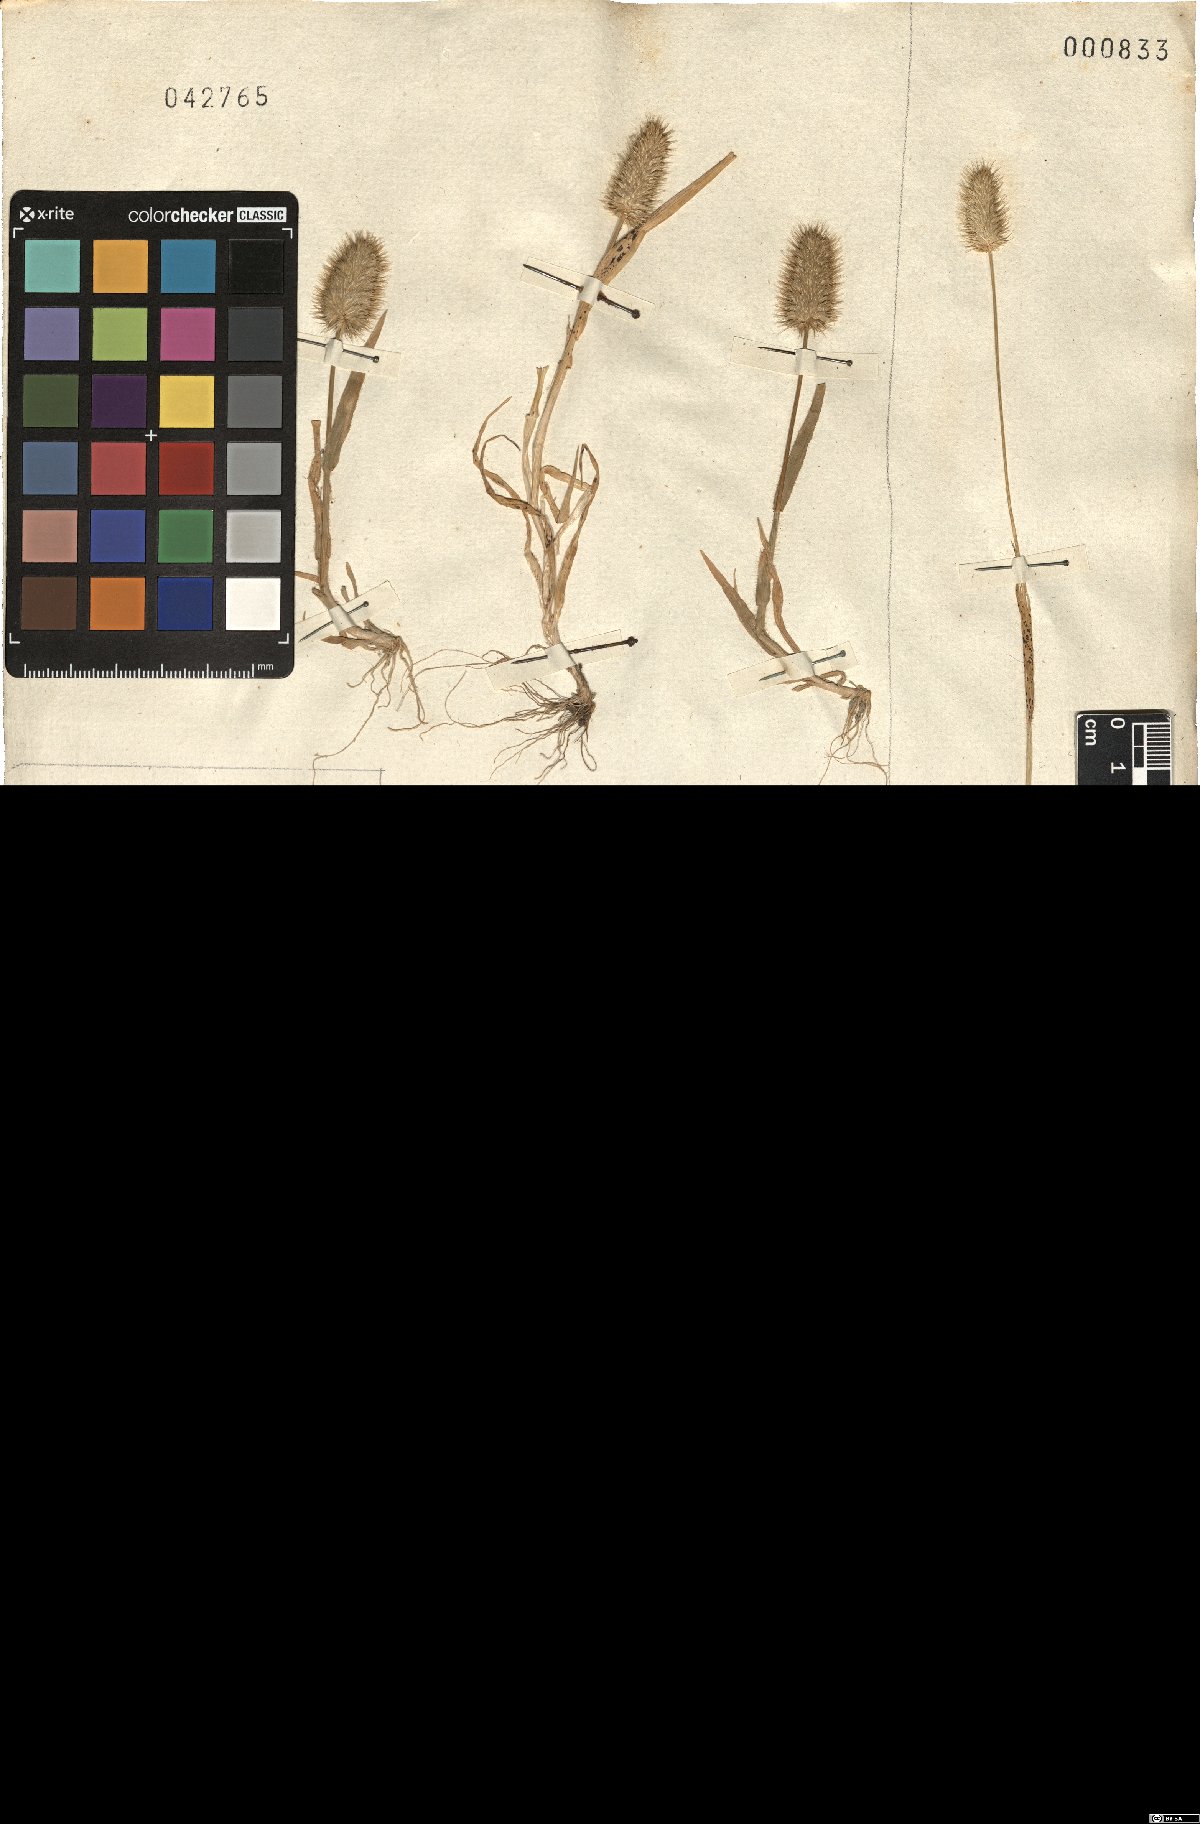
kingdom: Plantae
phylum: Tracheophyta
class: Liliopsida
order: Poales
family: Poaceae
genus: Rostraria
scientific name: Rostraria hispida
